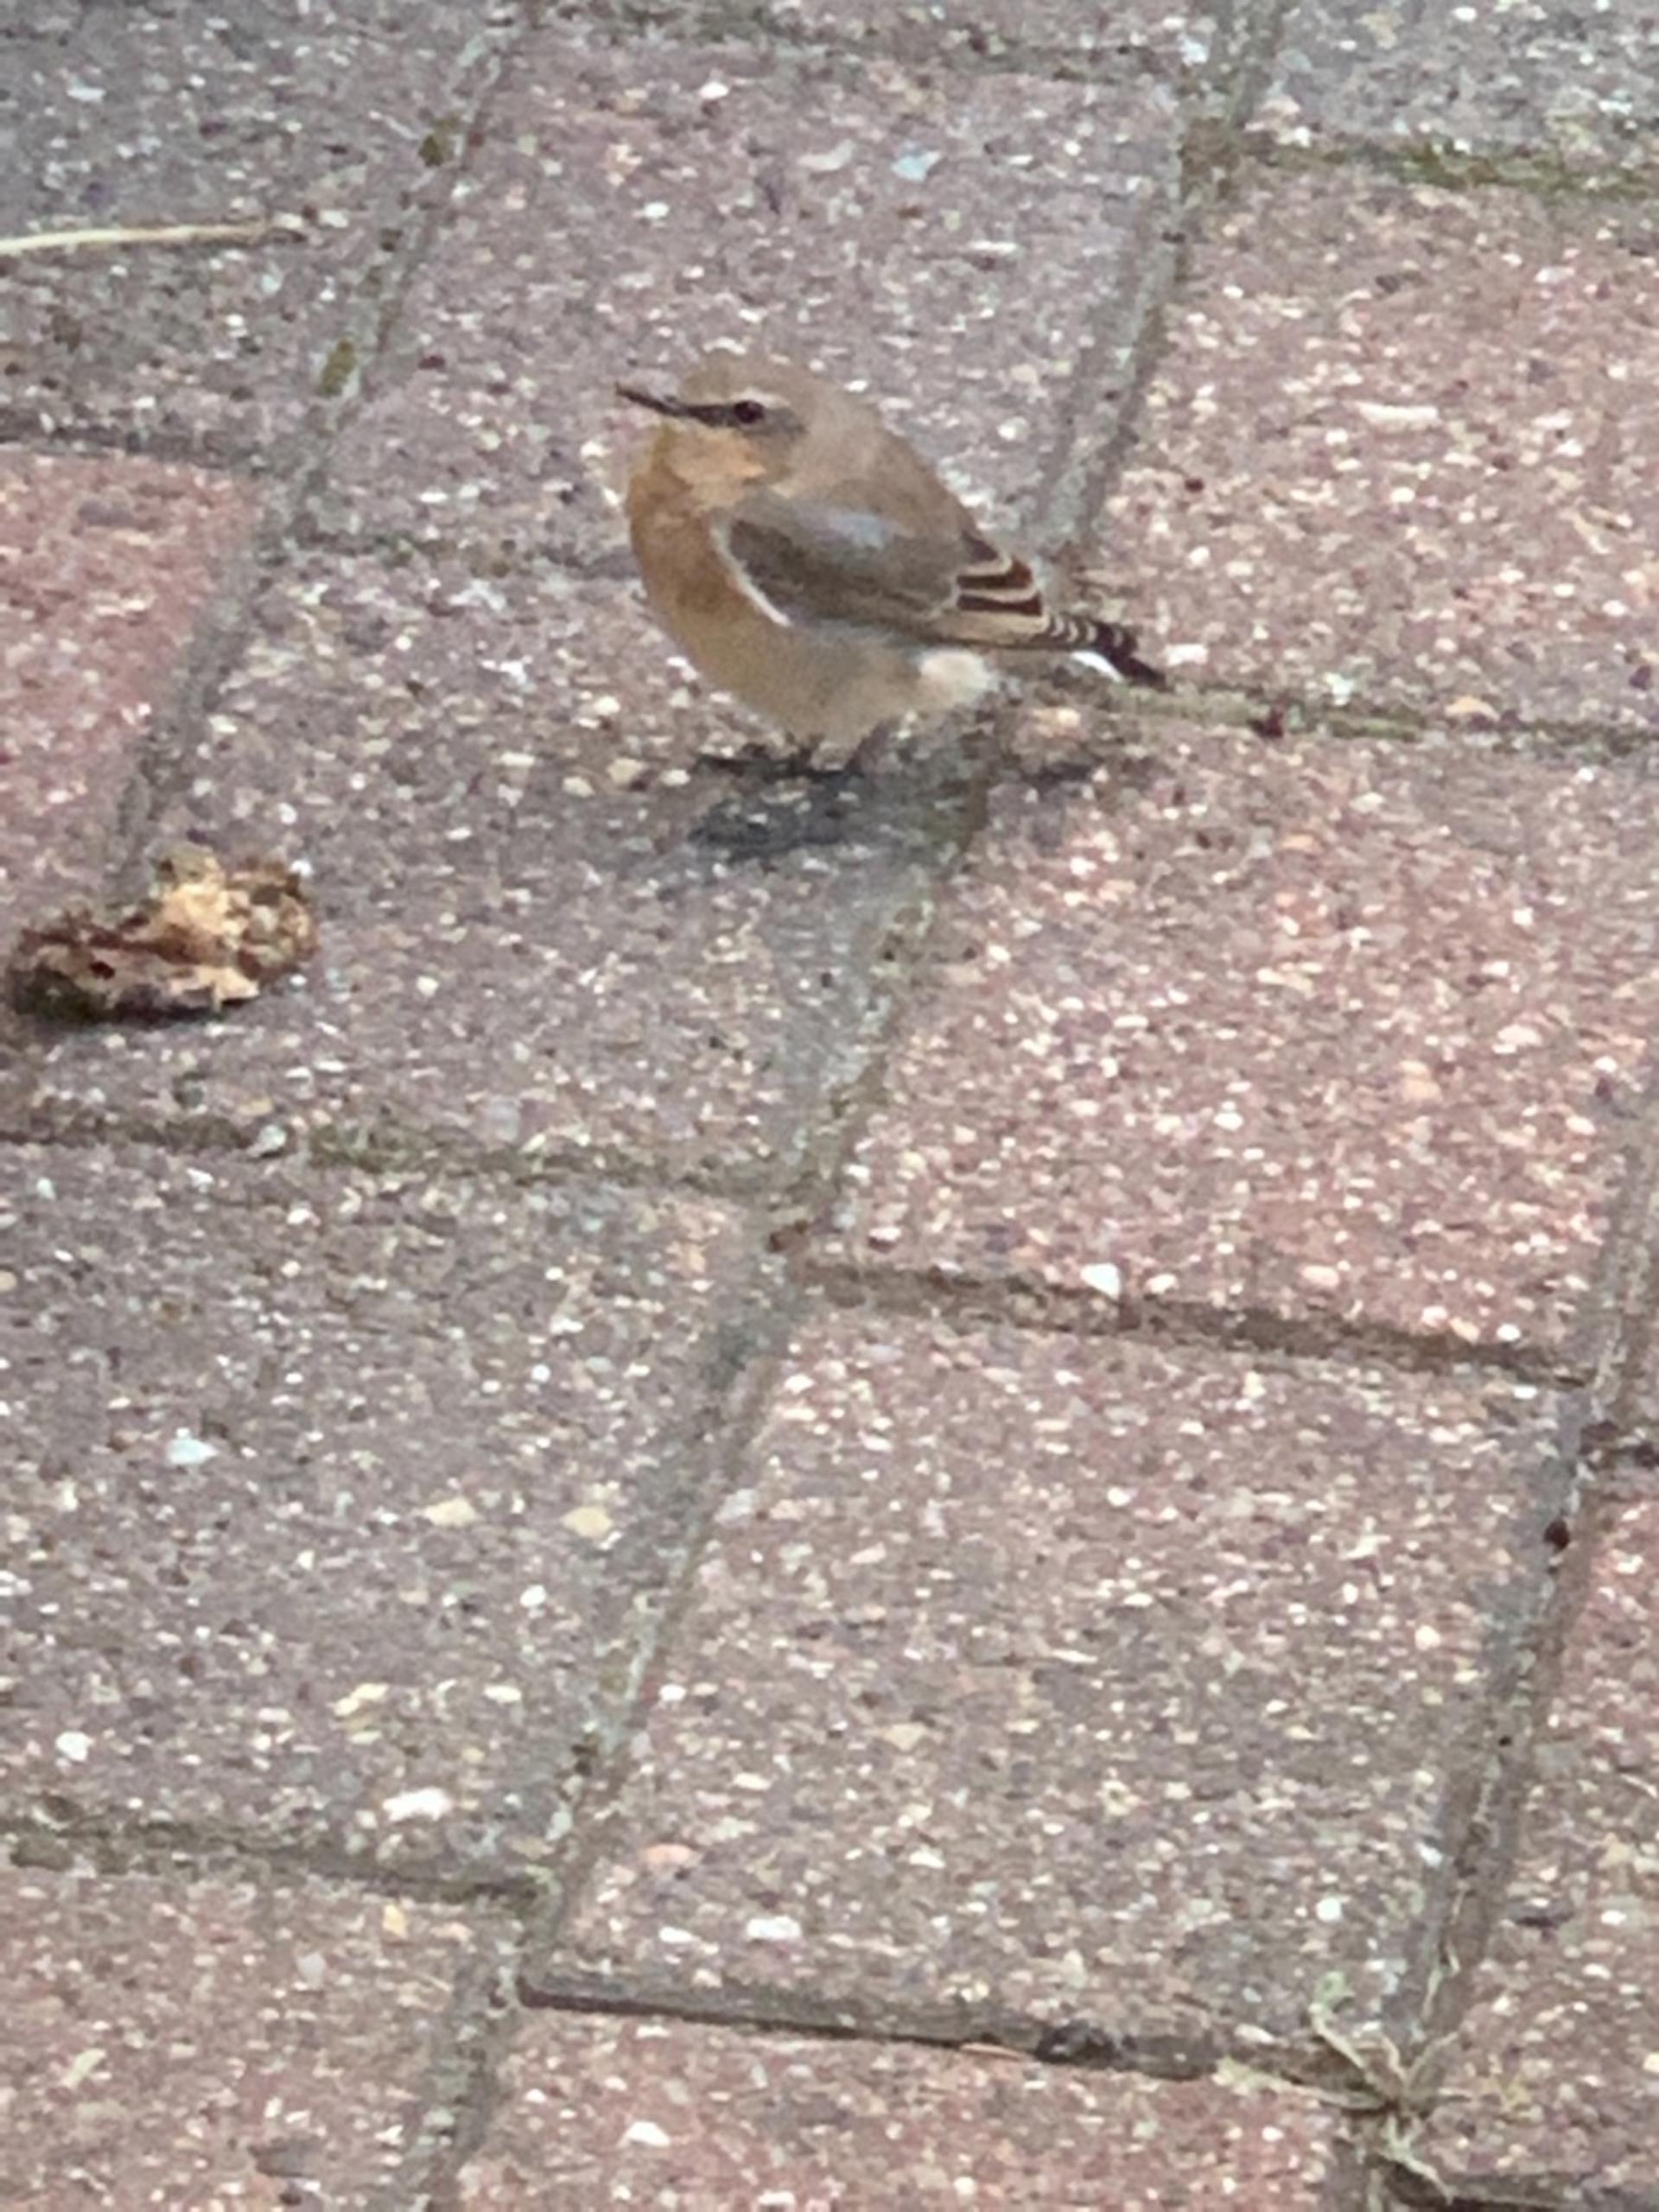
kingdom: Animalia
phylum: Chordata
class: Aves
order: Passeriformes
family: Muscicapidae
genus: Oenanthe
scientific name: Oenanthe oenanthe
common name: Stenpikker
